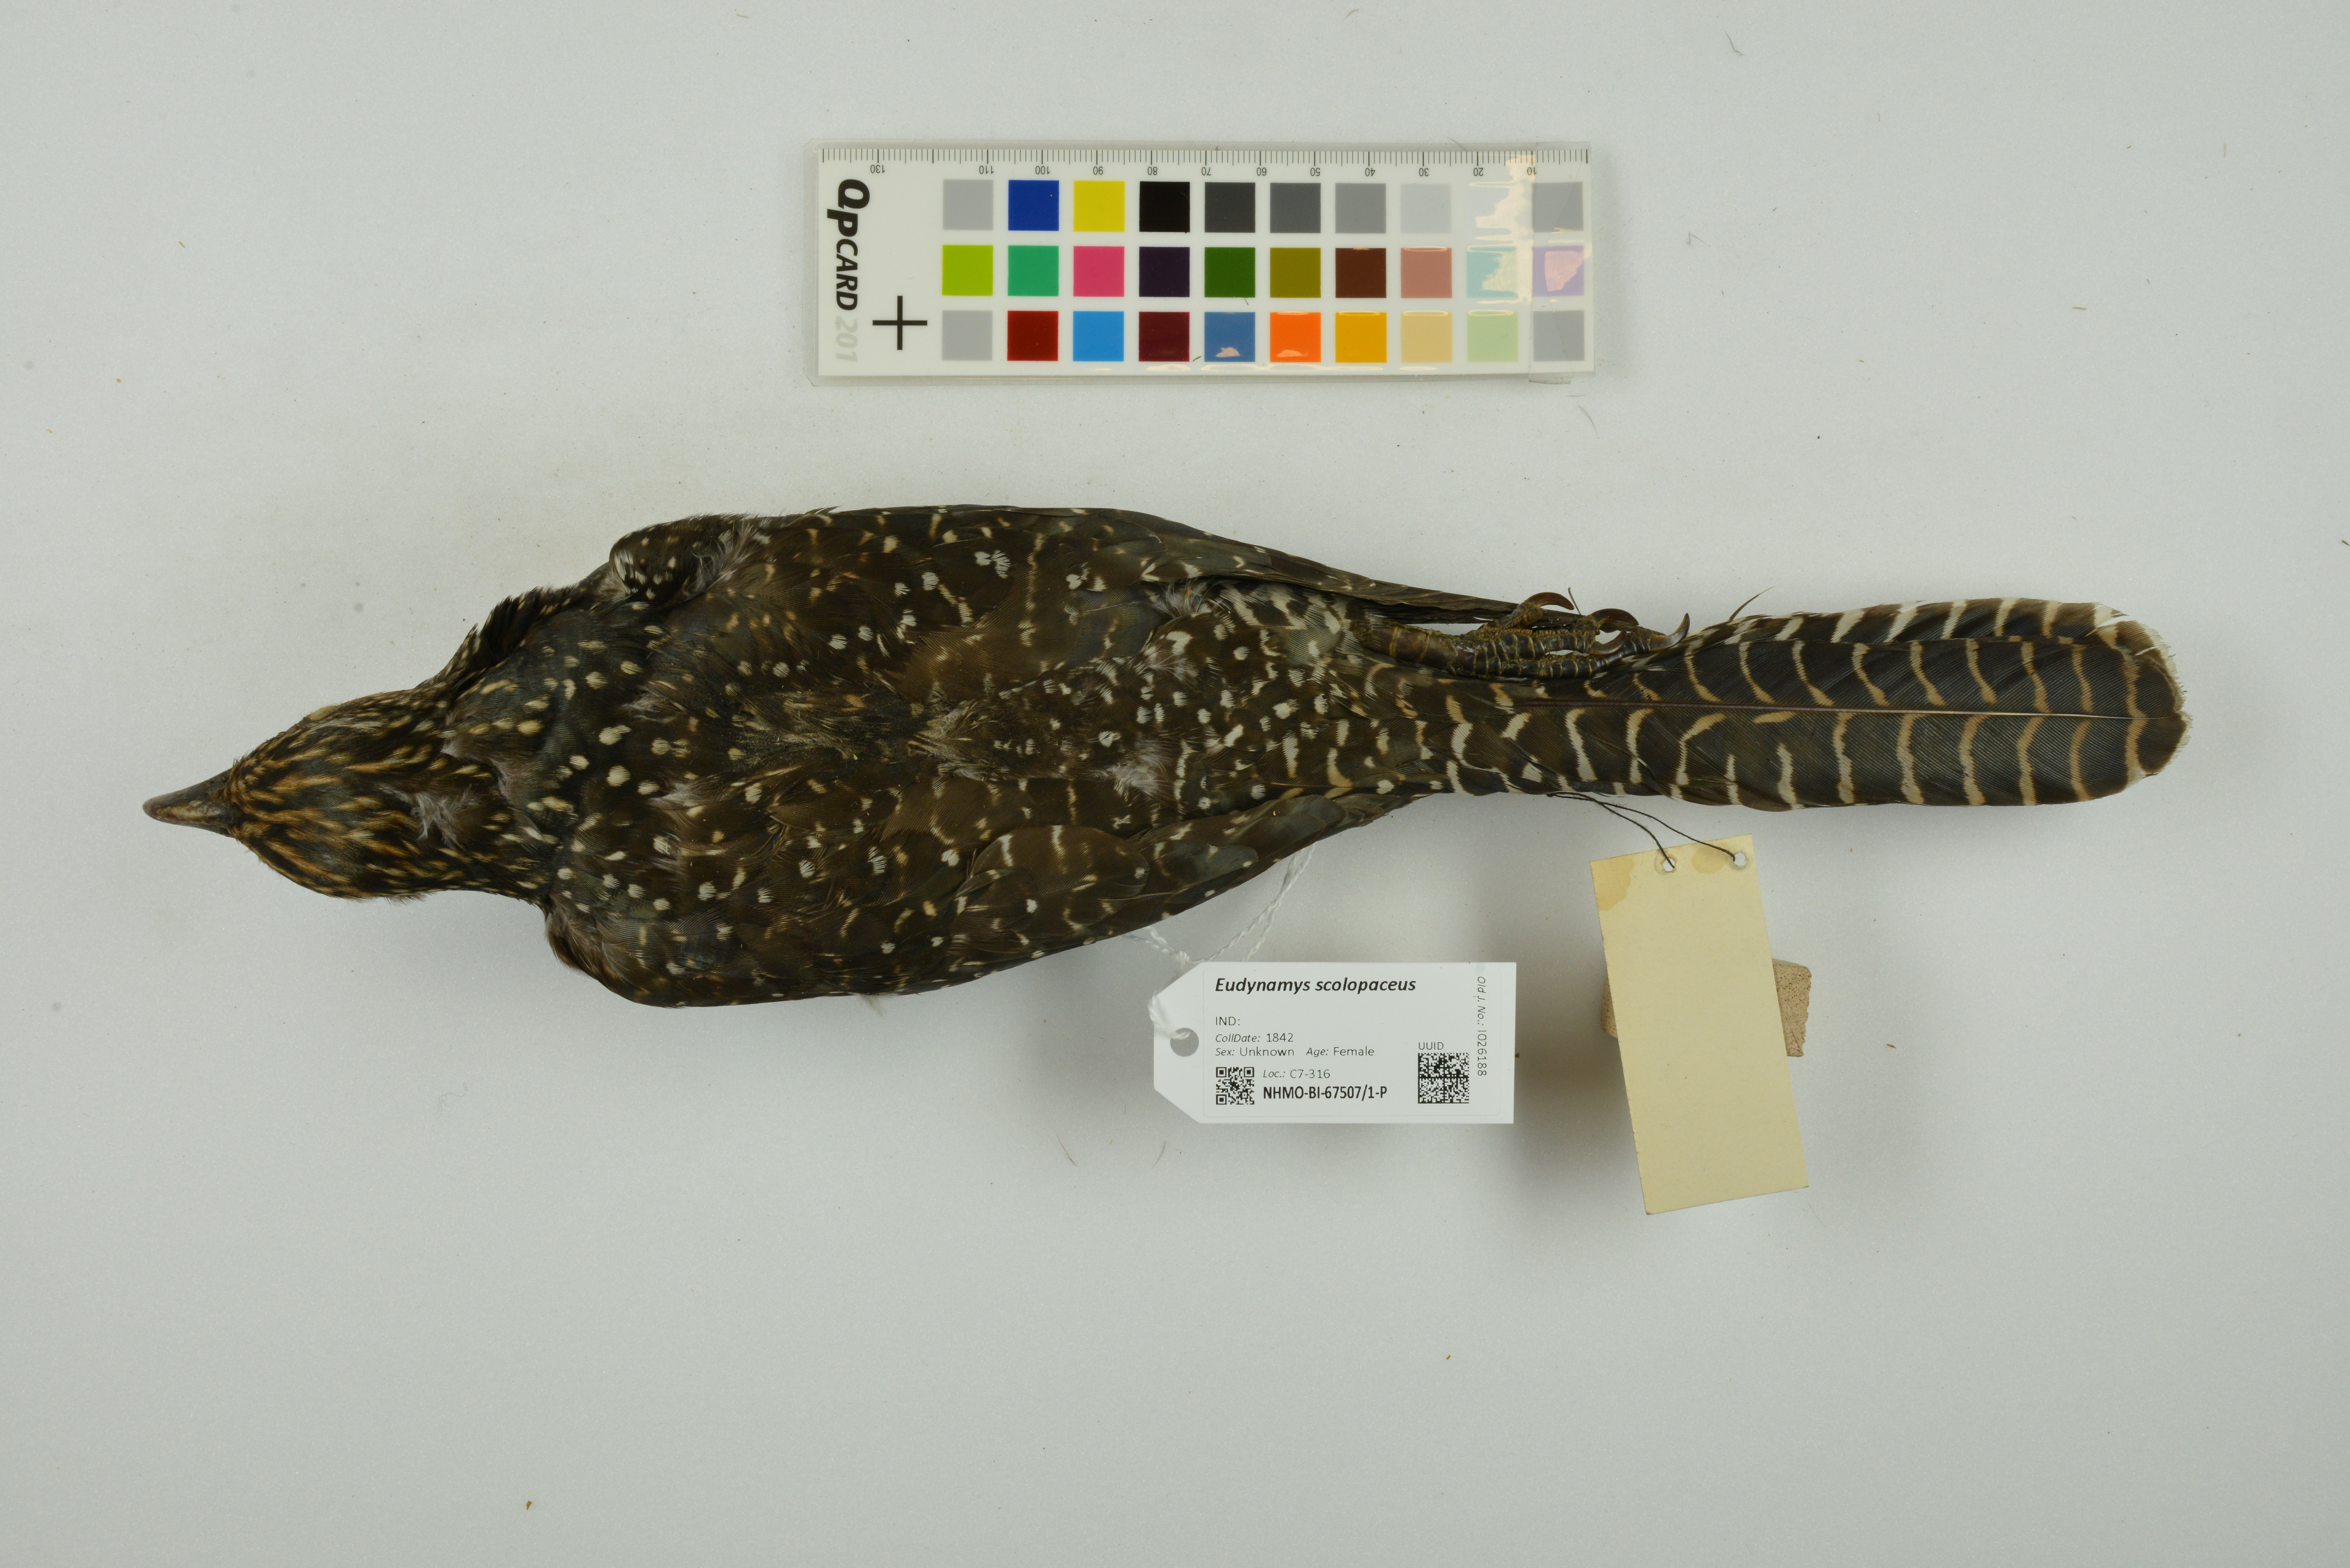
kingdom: Animalia
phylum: Chordata
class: Aves
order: Cuculiformes
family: Cuculidae
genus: Eudynamys
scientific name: Eudynamys scolopaceus
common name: Asian koel
